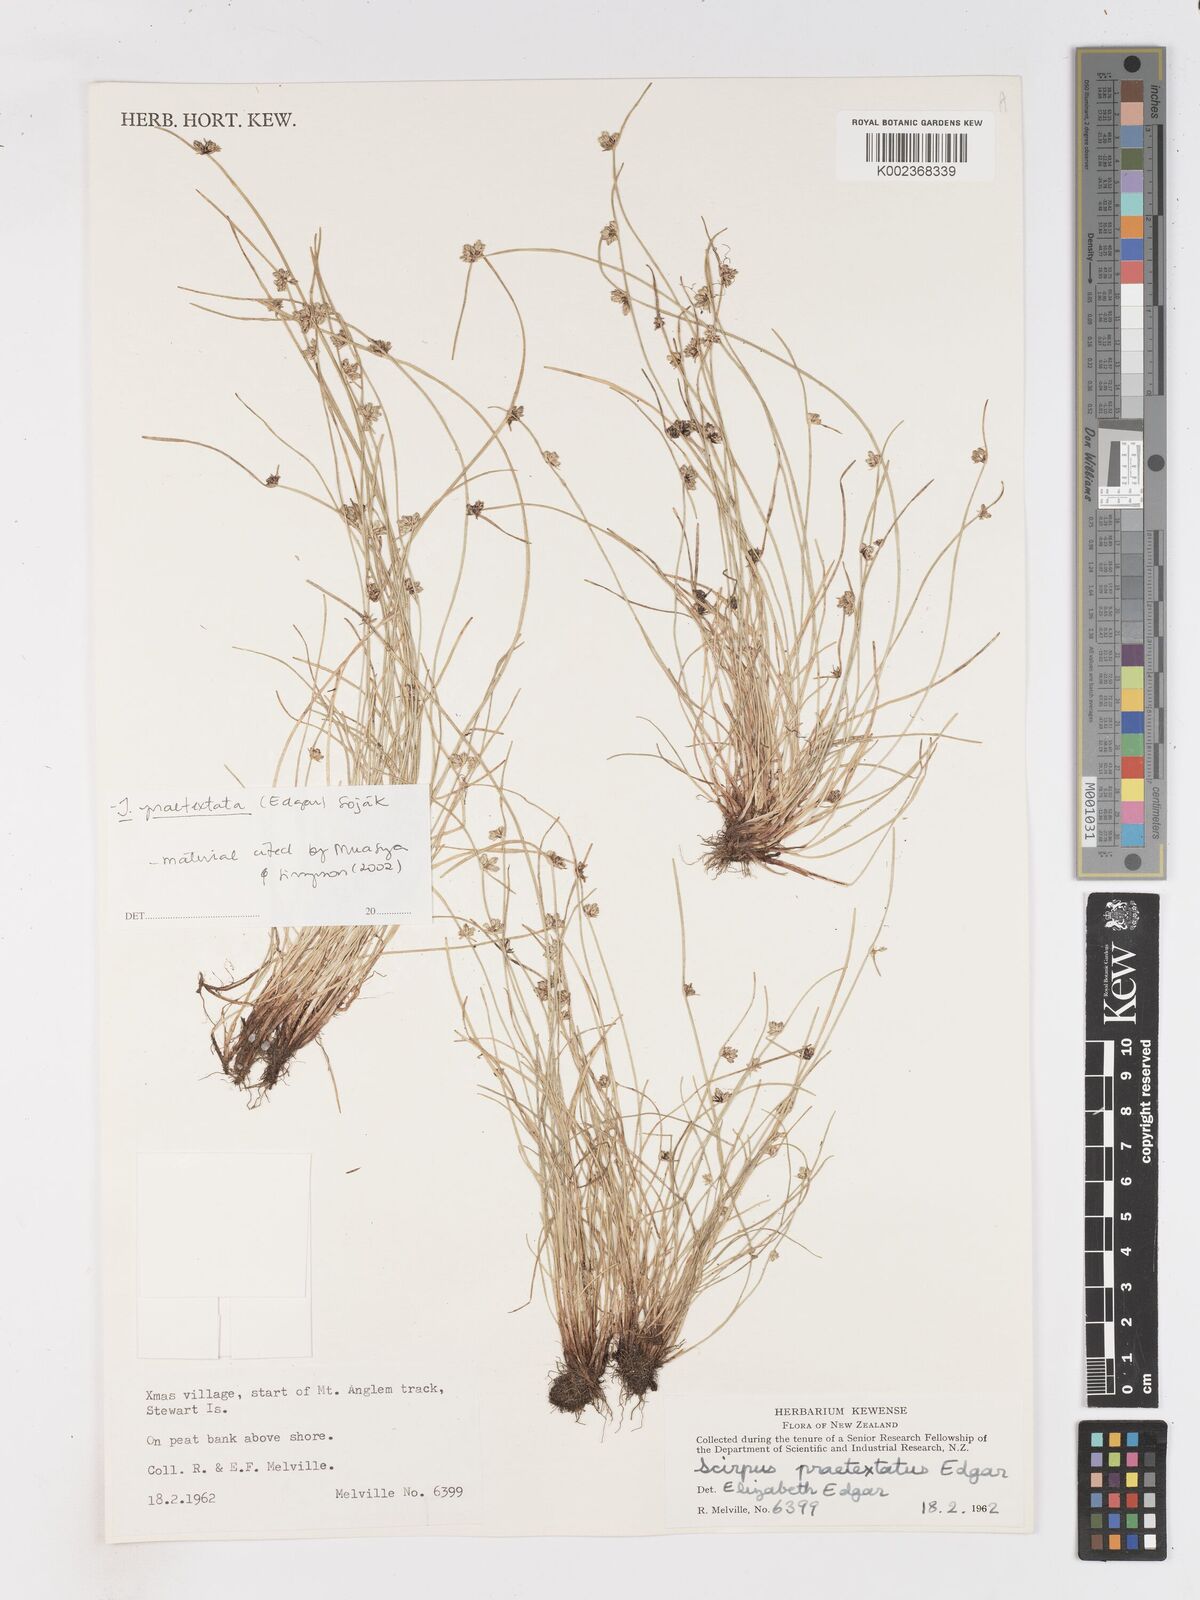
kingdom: Plantae
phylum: Tracheophyta
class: Liliopsida
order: Poales
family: Cyperaceae
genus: Isolepis
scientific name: Isolepis praetextata
